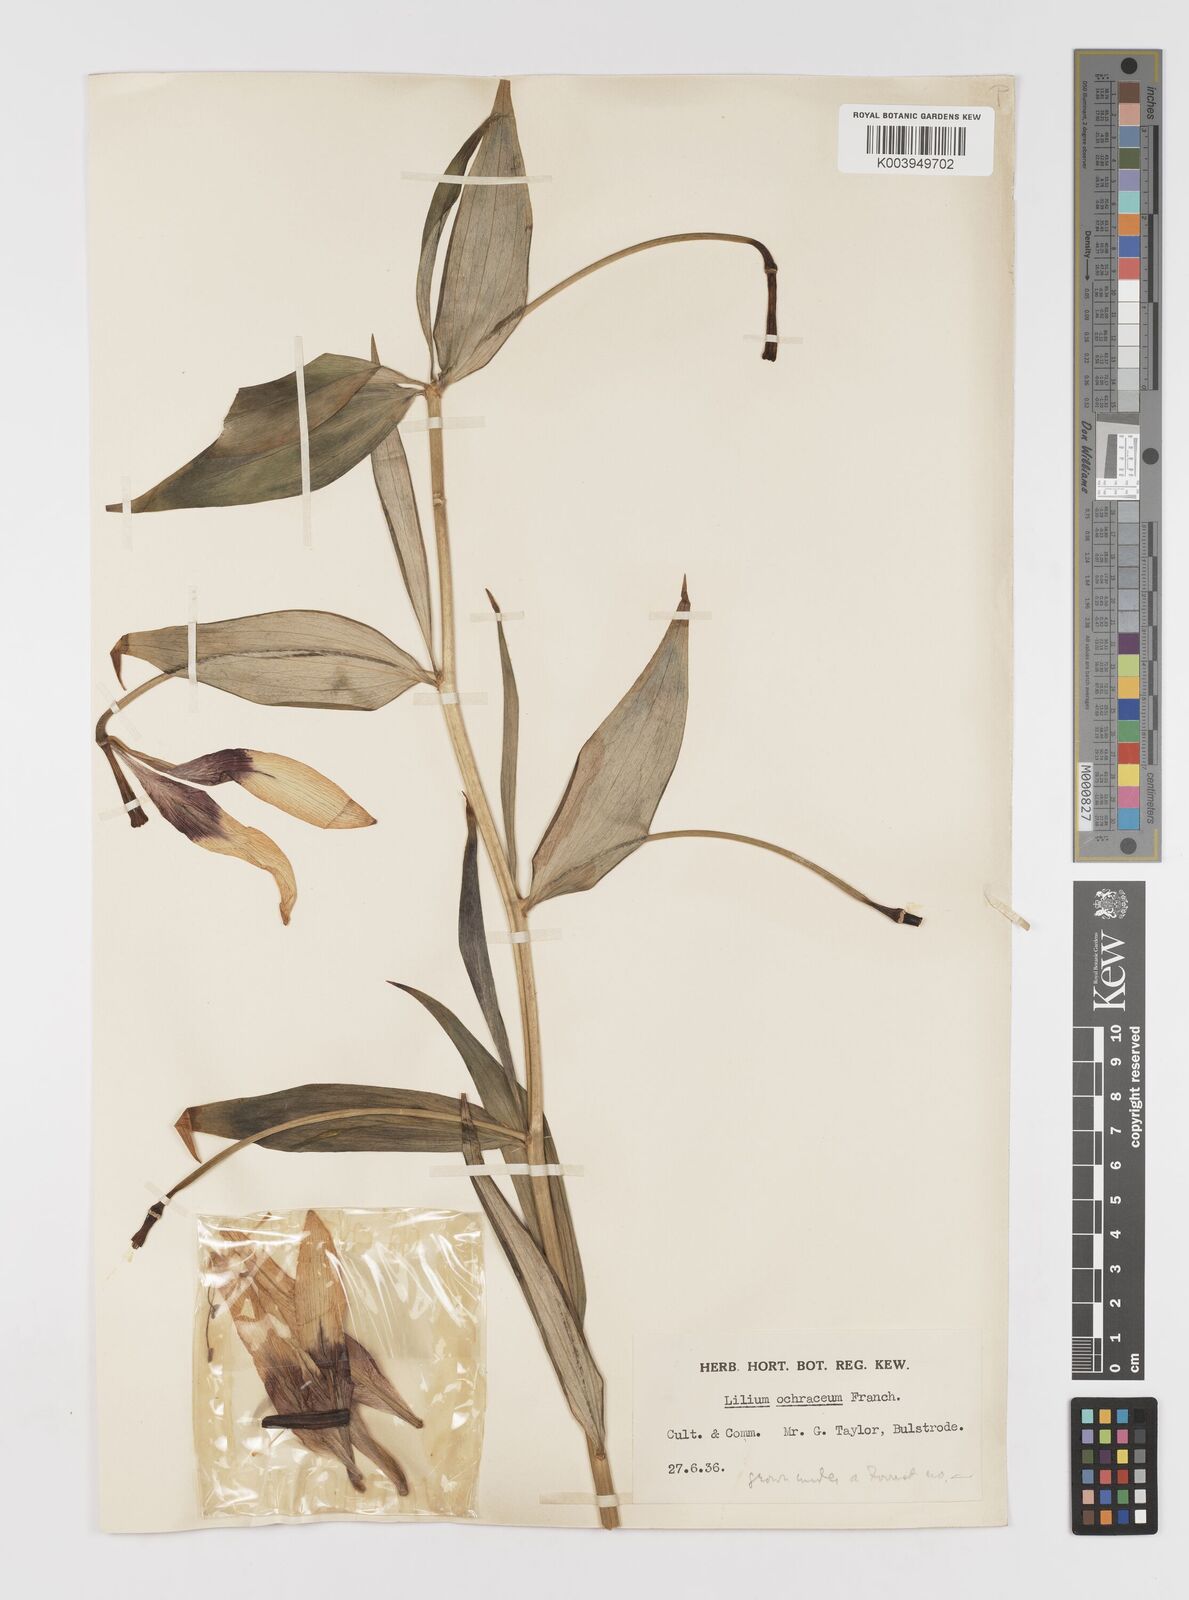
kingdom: Plantae
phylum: Tracheophyta
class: Liliopsida
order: Liliales
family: Liliaceae
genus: Lilium
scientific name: Lilium primulinum
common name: Ochre lily
